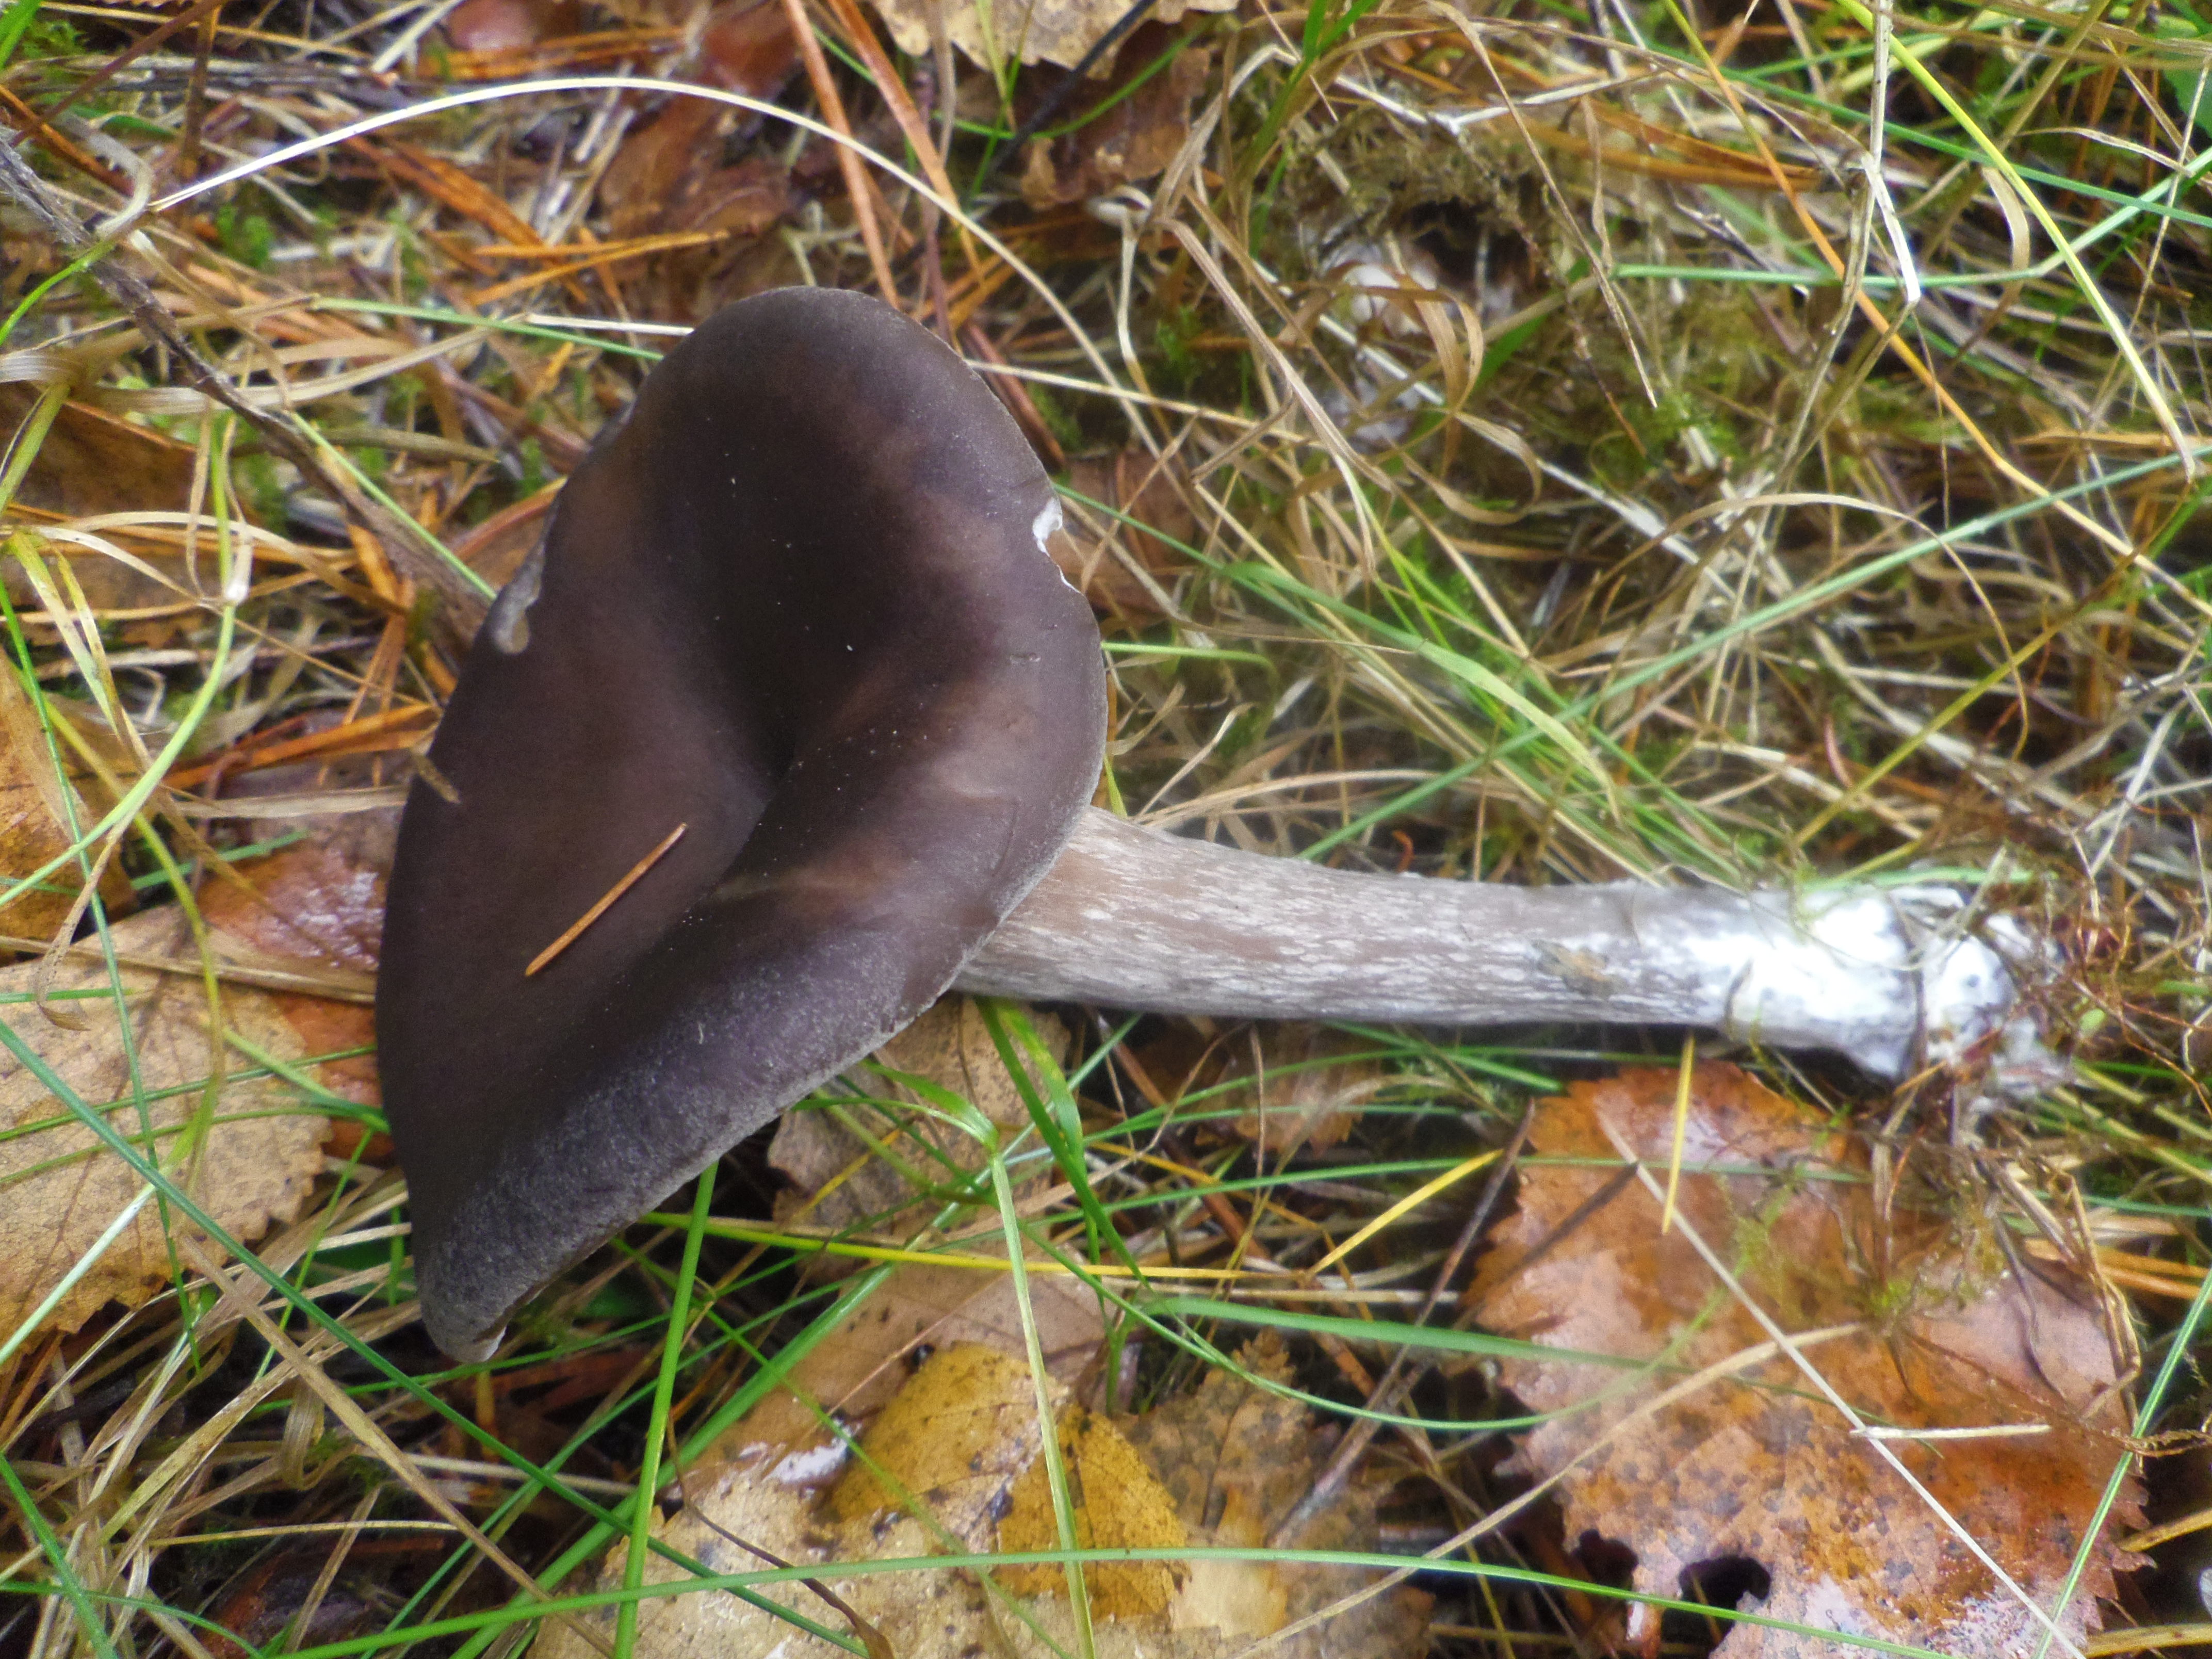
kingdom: Fungi
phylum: Basidiomycota
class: Agaricomycetes
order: Agaricales
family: Pseudoclitocybaceae
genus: Pseudoclitocybe
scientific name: Pseudoclitocybe cyathiformis
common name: Goblet
